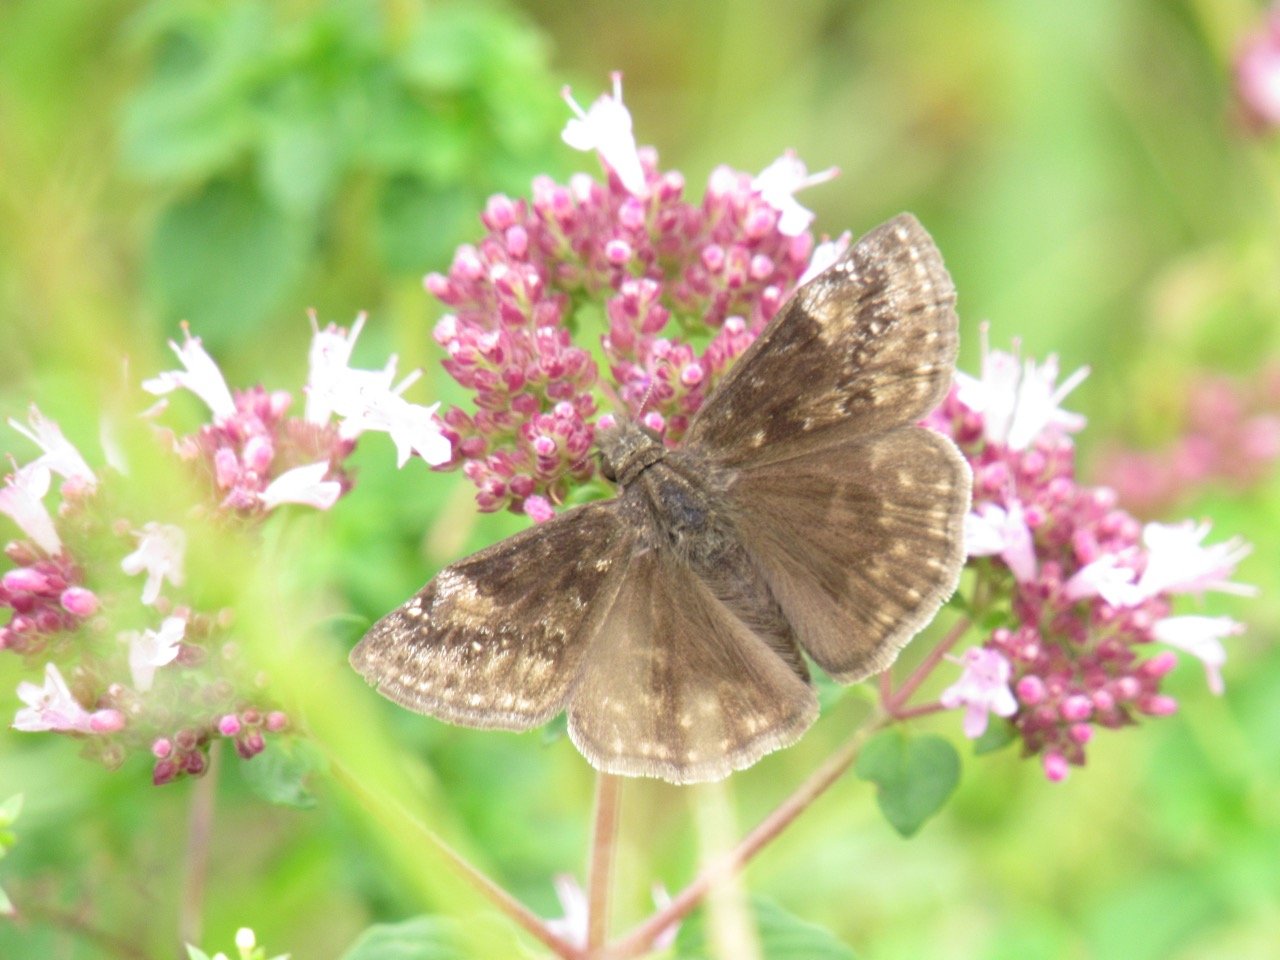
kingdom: Animalia
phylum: Arthropoda
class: Insecta
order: Lepidoptera
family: Hesperiidae
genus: Gesta
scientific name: Gesta
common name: Wild Indigo Duskywing
